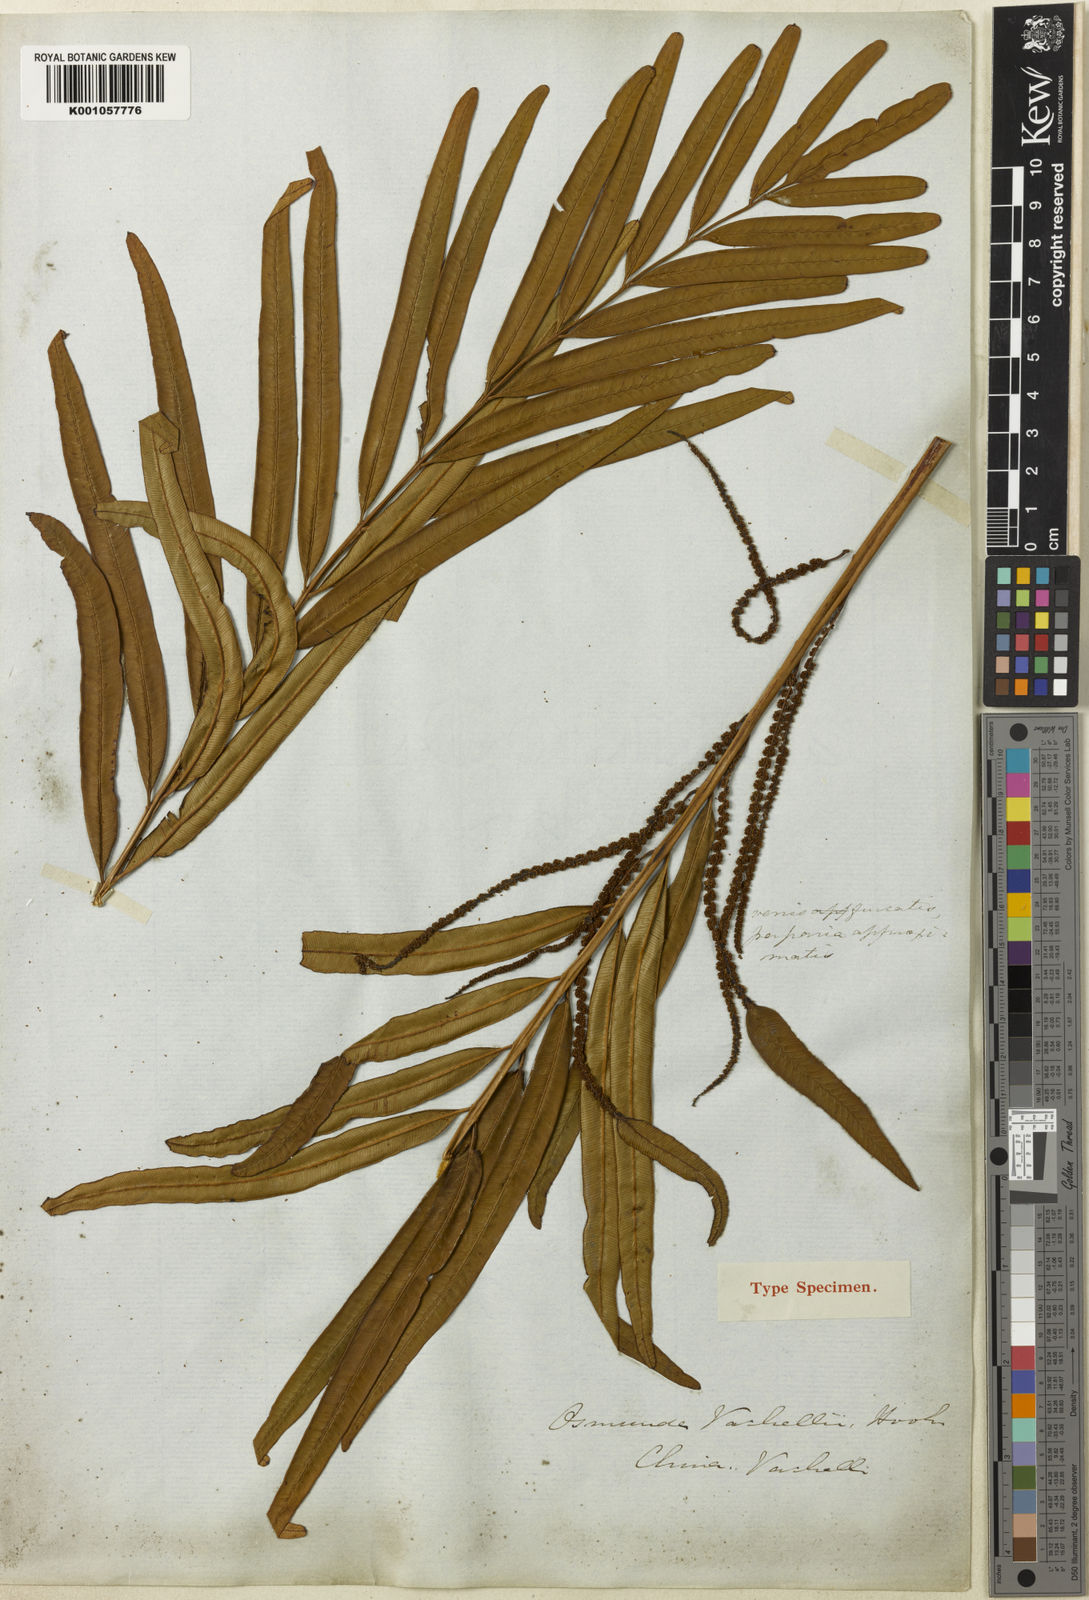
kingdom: Plantae
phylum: Tracheophyta
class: Polypodiopsida
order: Osmundales
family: Osmundaceae
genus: Plenasium
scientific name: Plenasium vachellii
